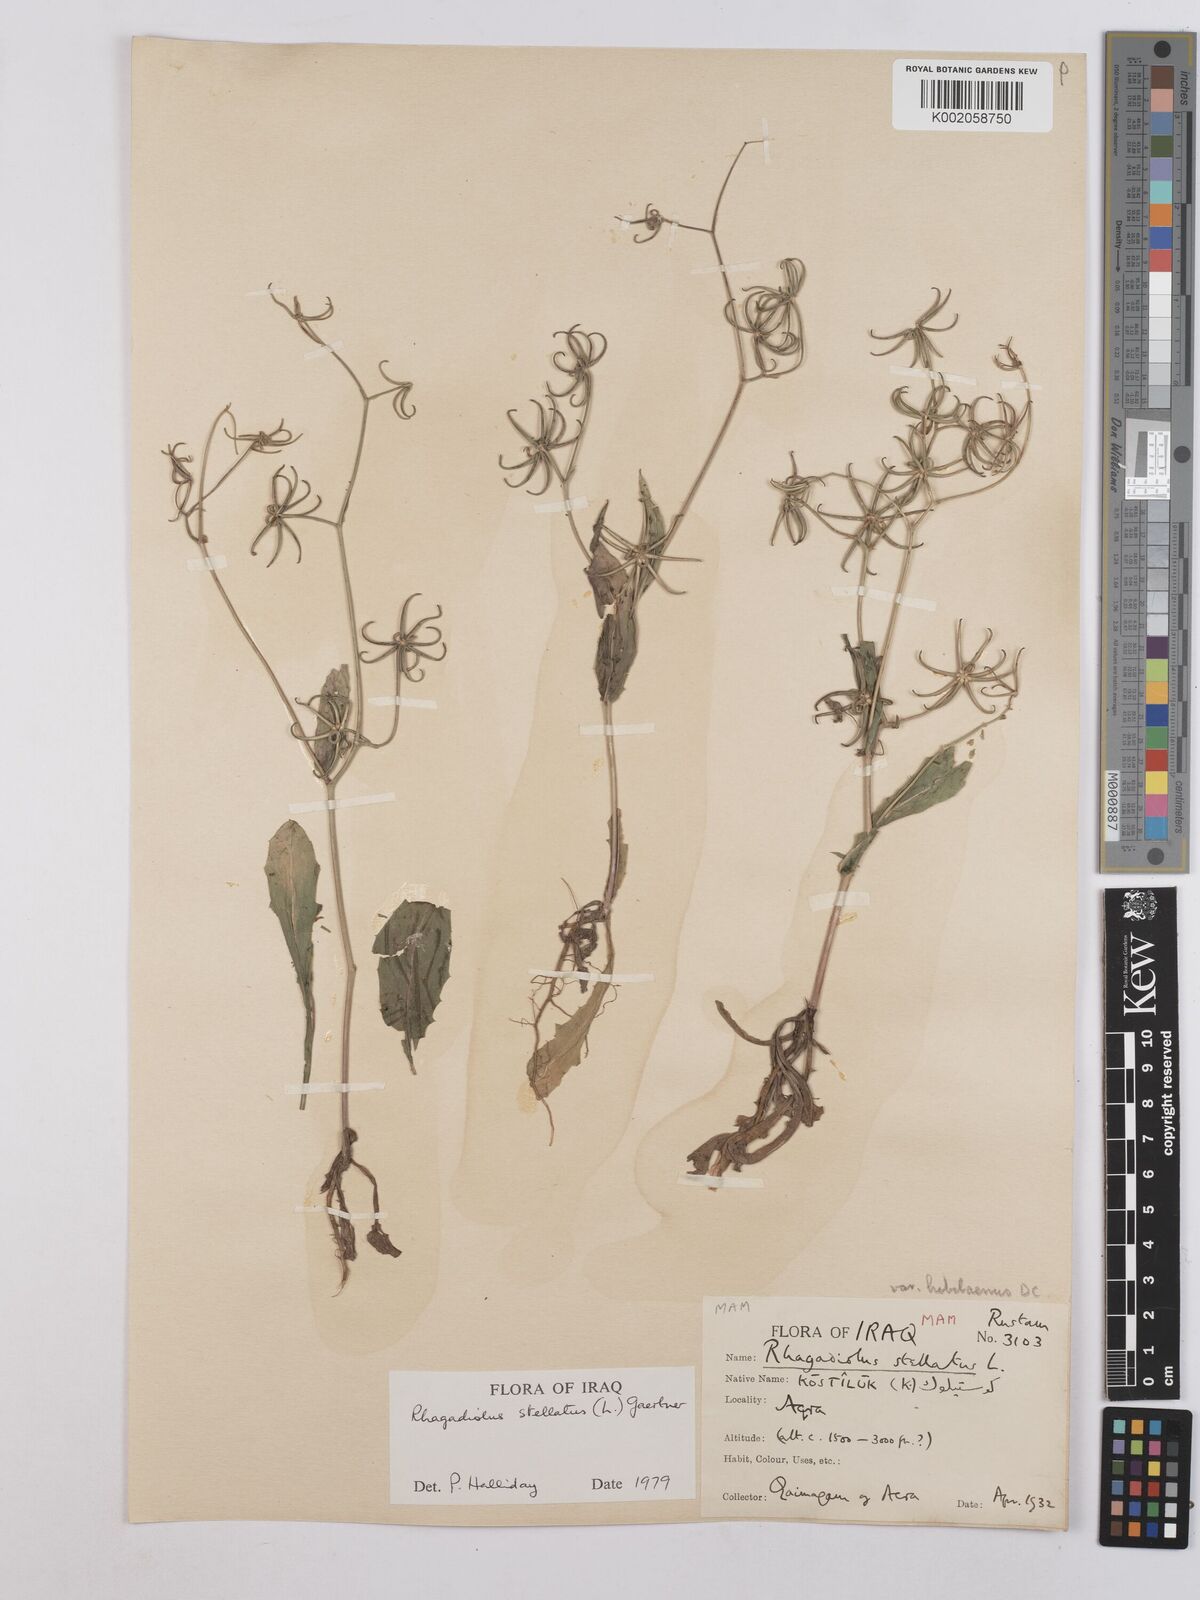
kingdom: Plantae
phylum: Tracheophyta
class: Magnoliopsida
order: Asterales
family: Asteraceae
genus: Rhagadiolus
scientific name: Rhagadiolus stellatus
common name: Star hawkbit
